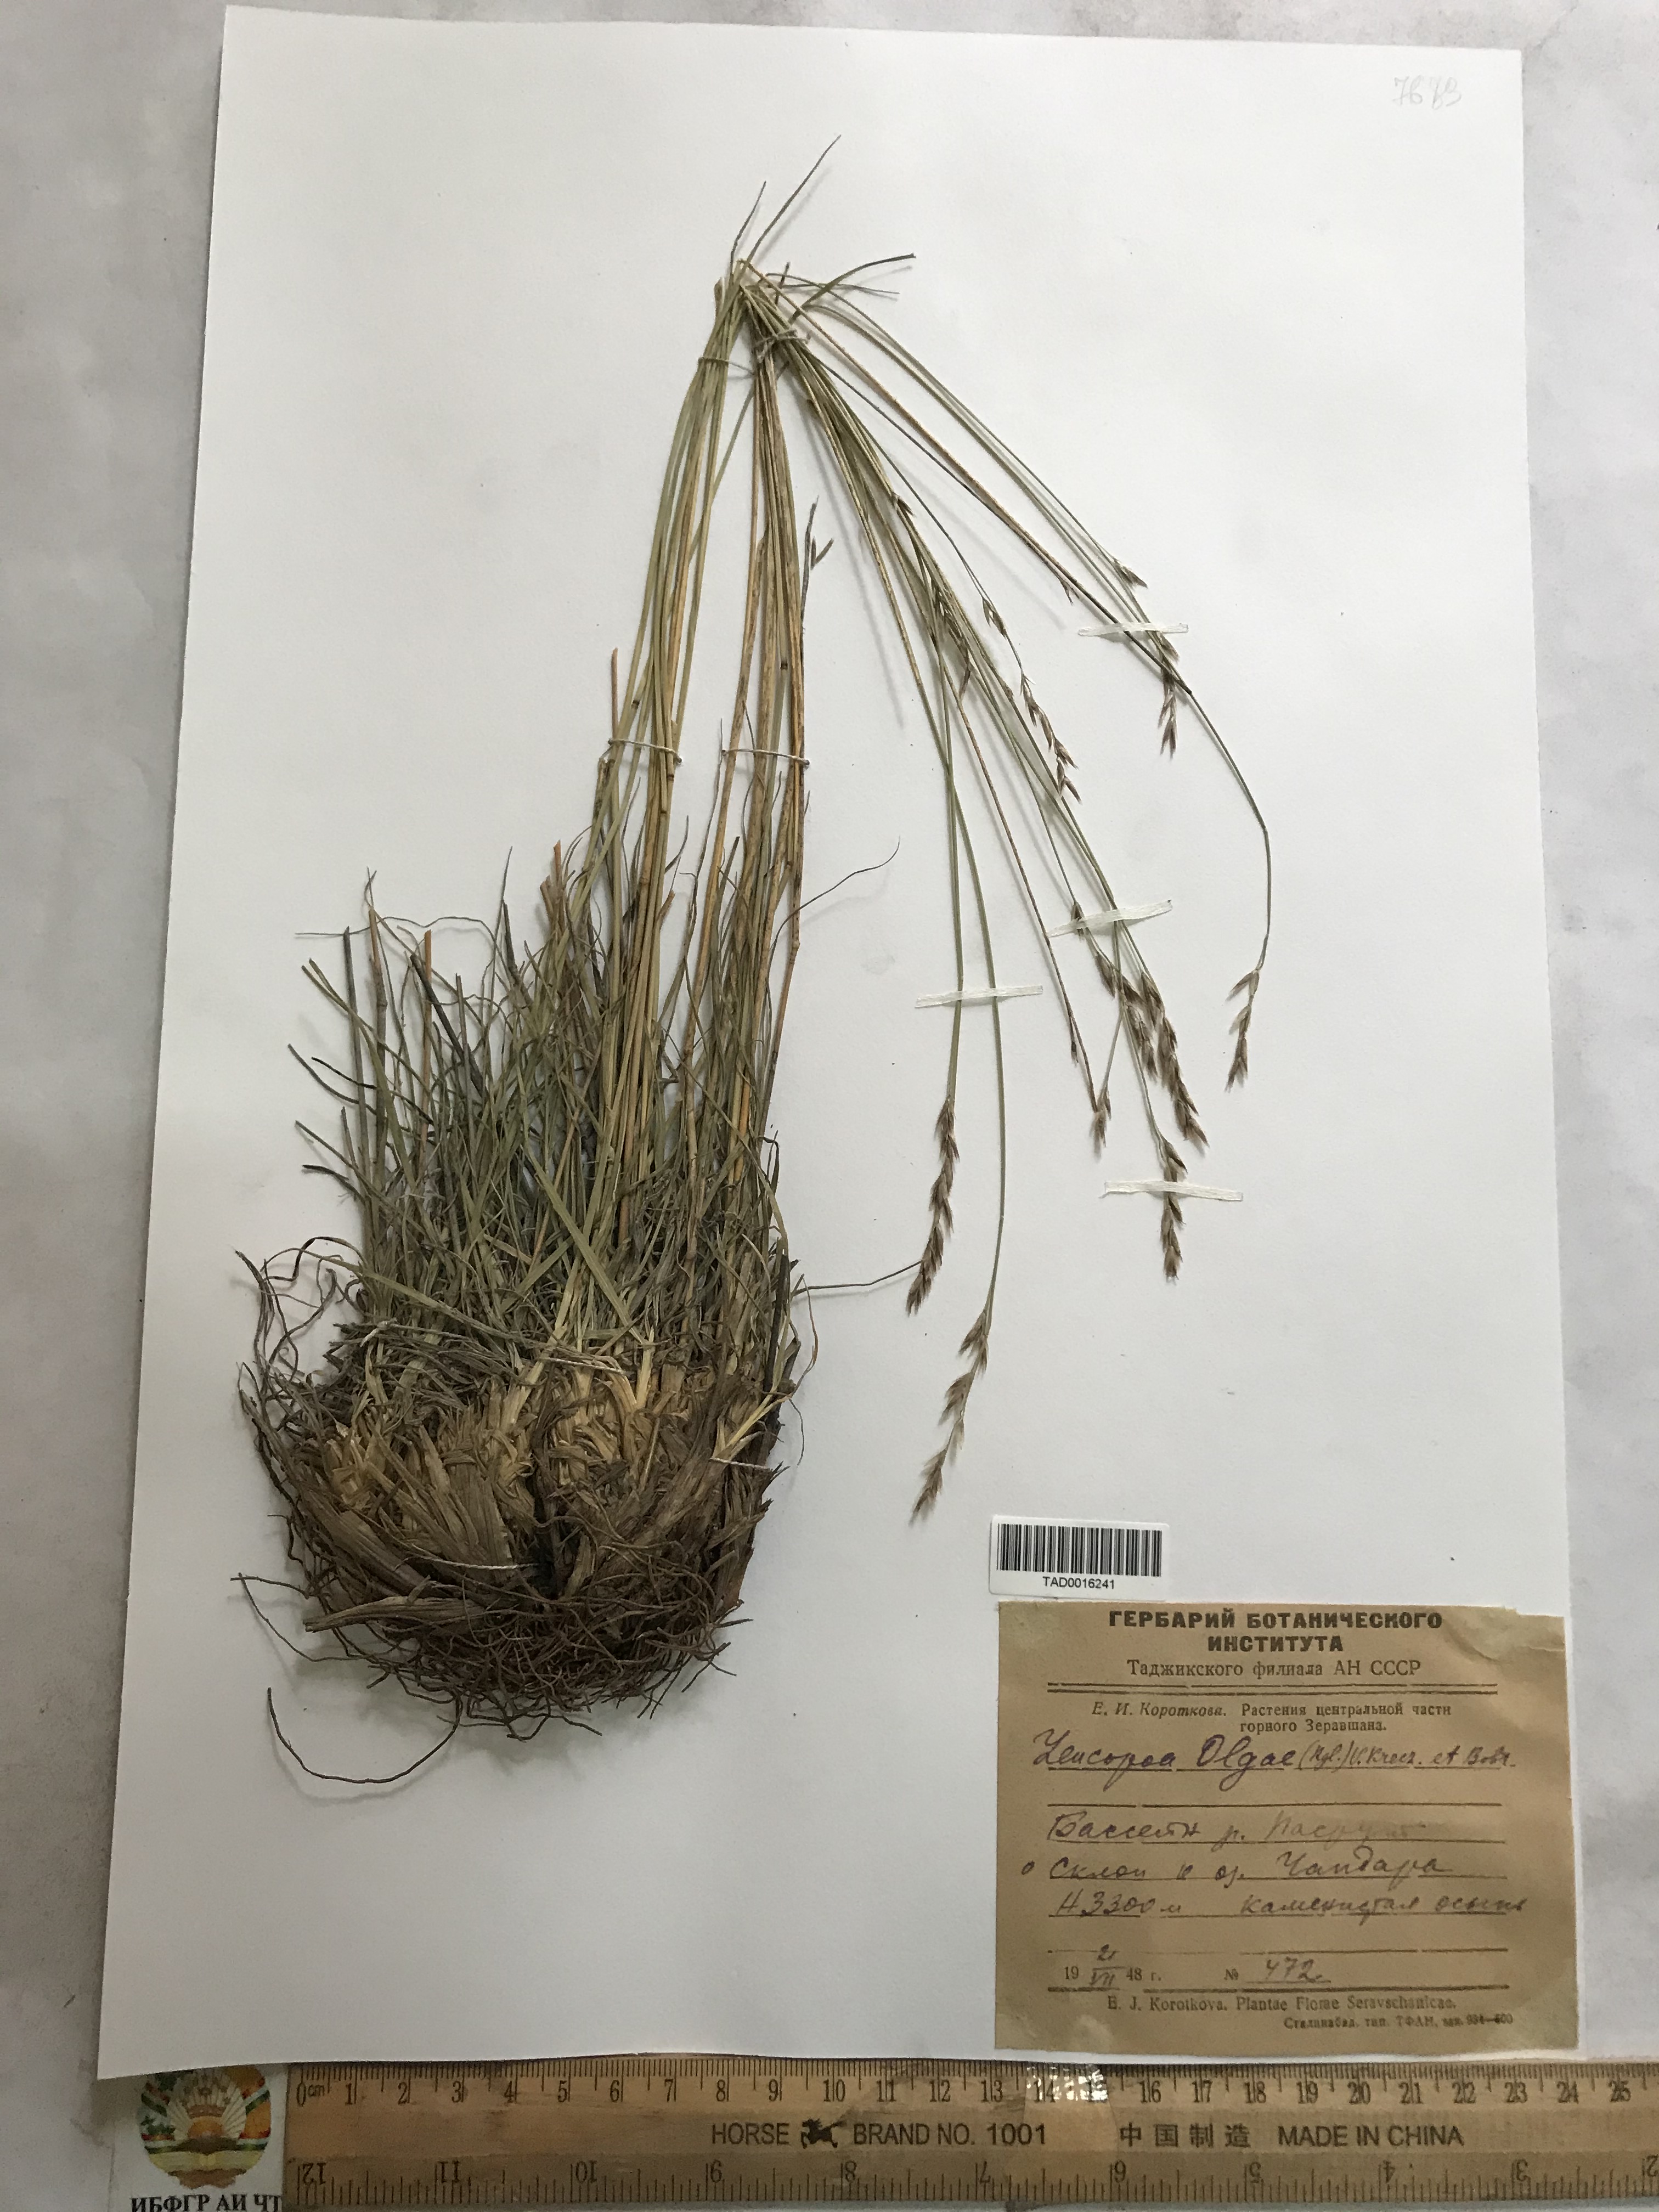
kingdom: Plantae
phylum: Tracheophyta
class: Liliopsida
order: Poales
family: Poaceae
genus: Festuca
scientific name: Festuca
